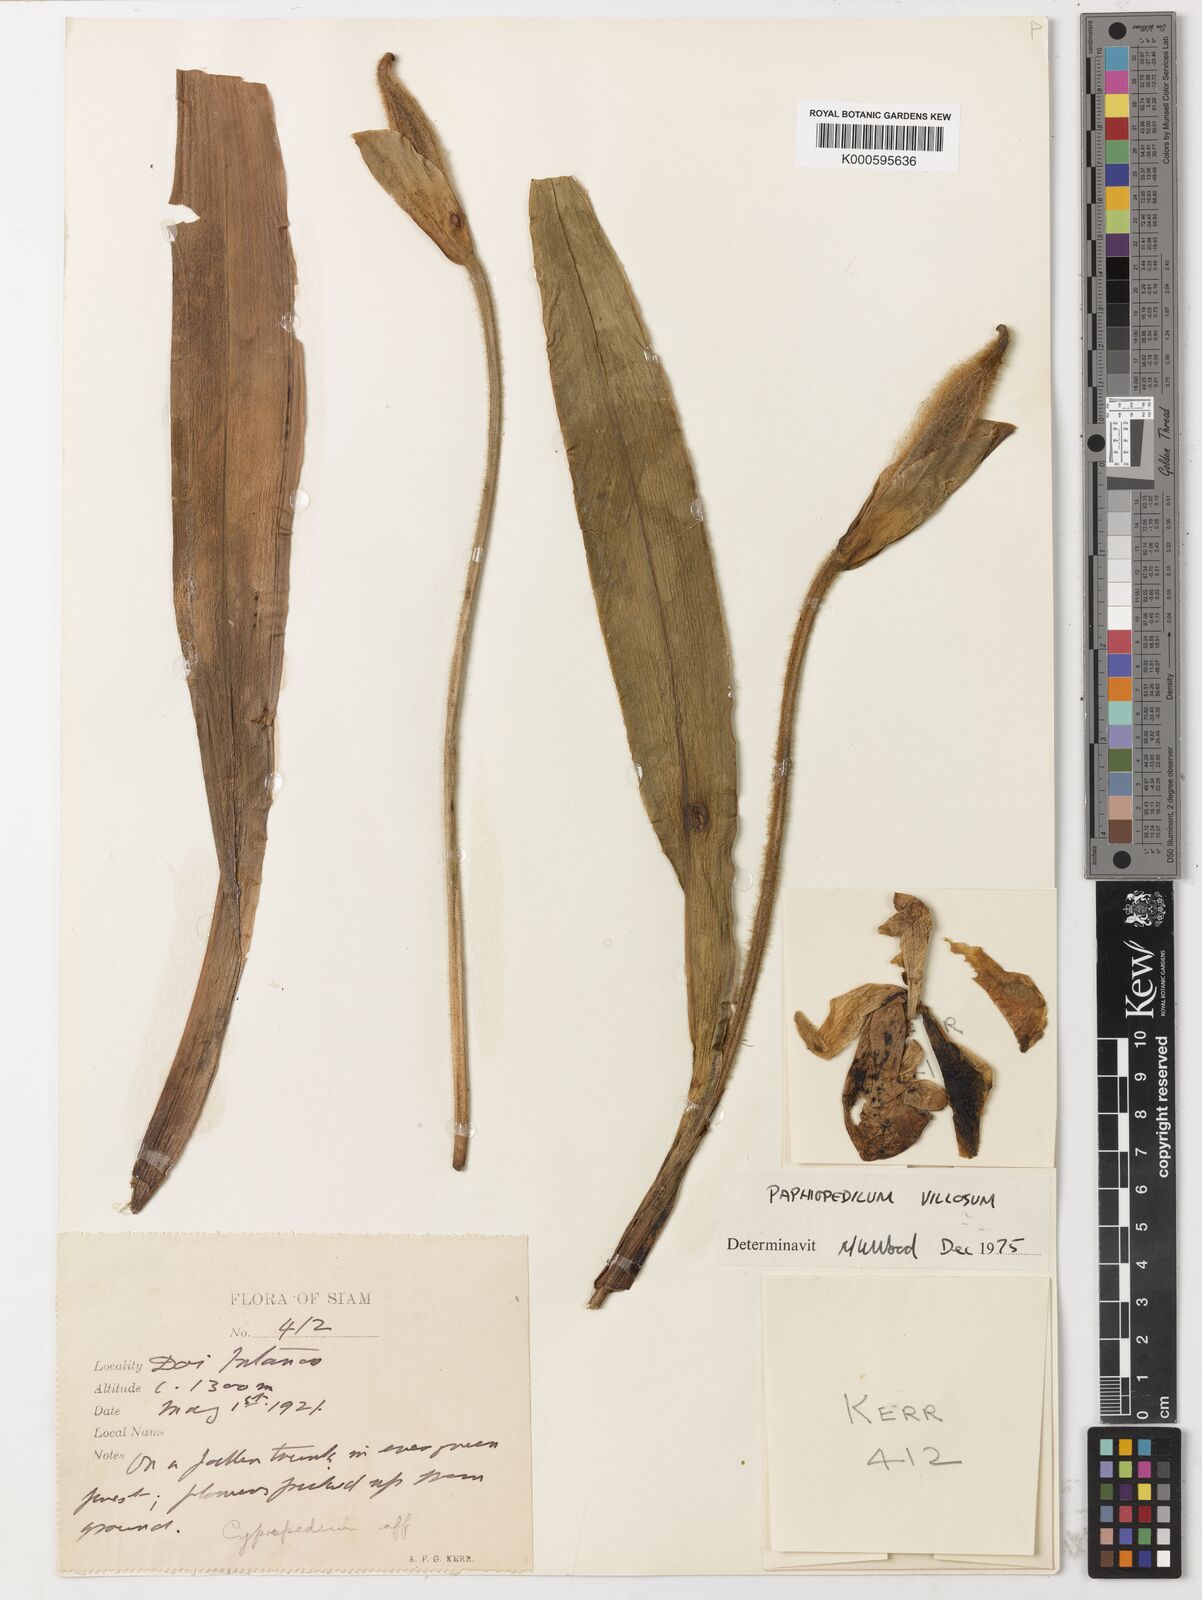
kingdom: Plantae
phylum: Tracheophyta
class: Liliopsida
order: Asparagales
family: Orchidaceae
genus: Paphiopedilum
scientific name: Paphiopedilum villosum
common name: Villose paphiopedilum
